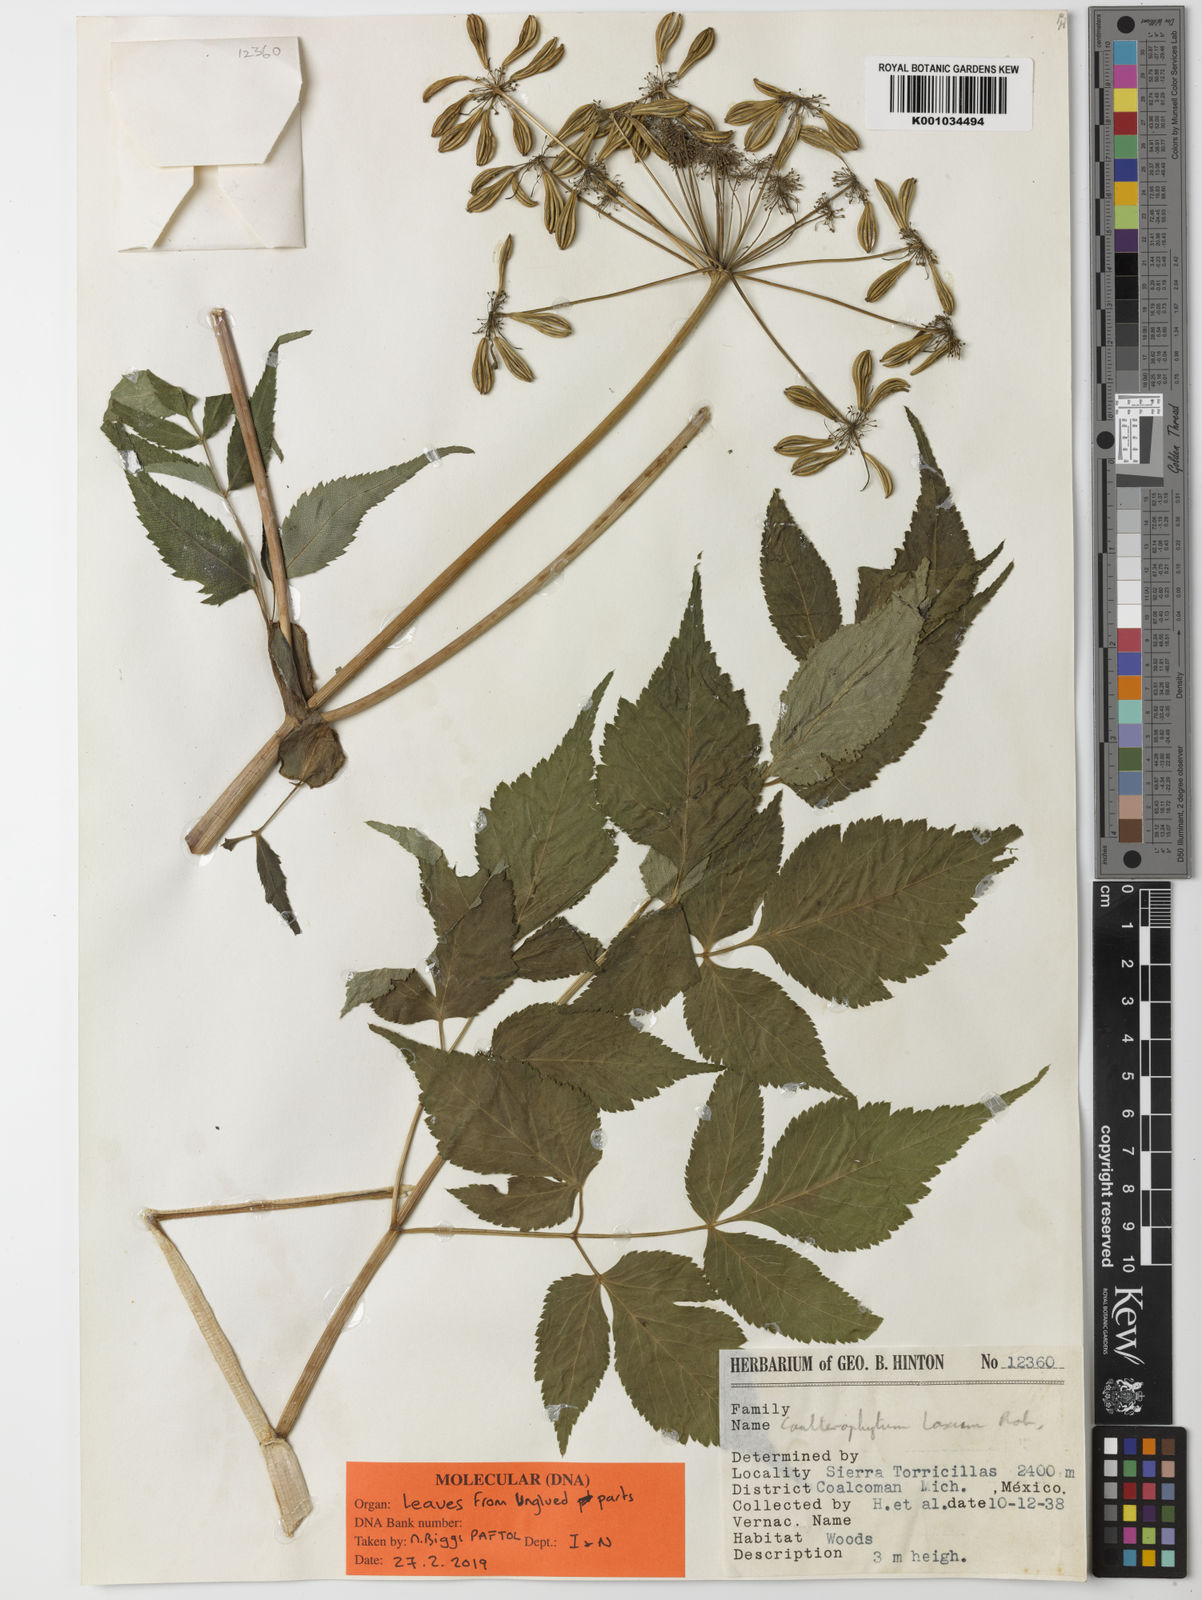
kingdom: Plantae
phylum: Tracheophyta
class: Magnoliopsida
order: Apiales
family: Apiaceae
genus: Coulterophytum
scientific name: Coulterophytum laxum
